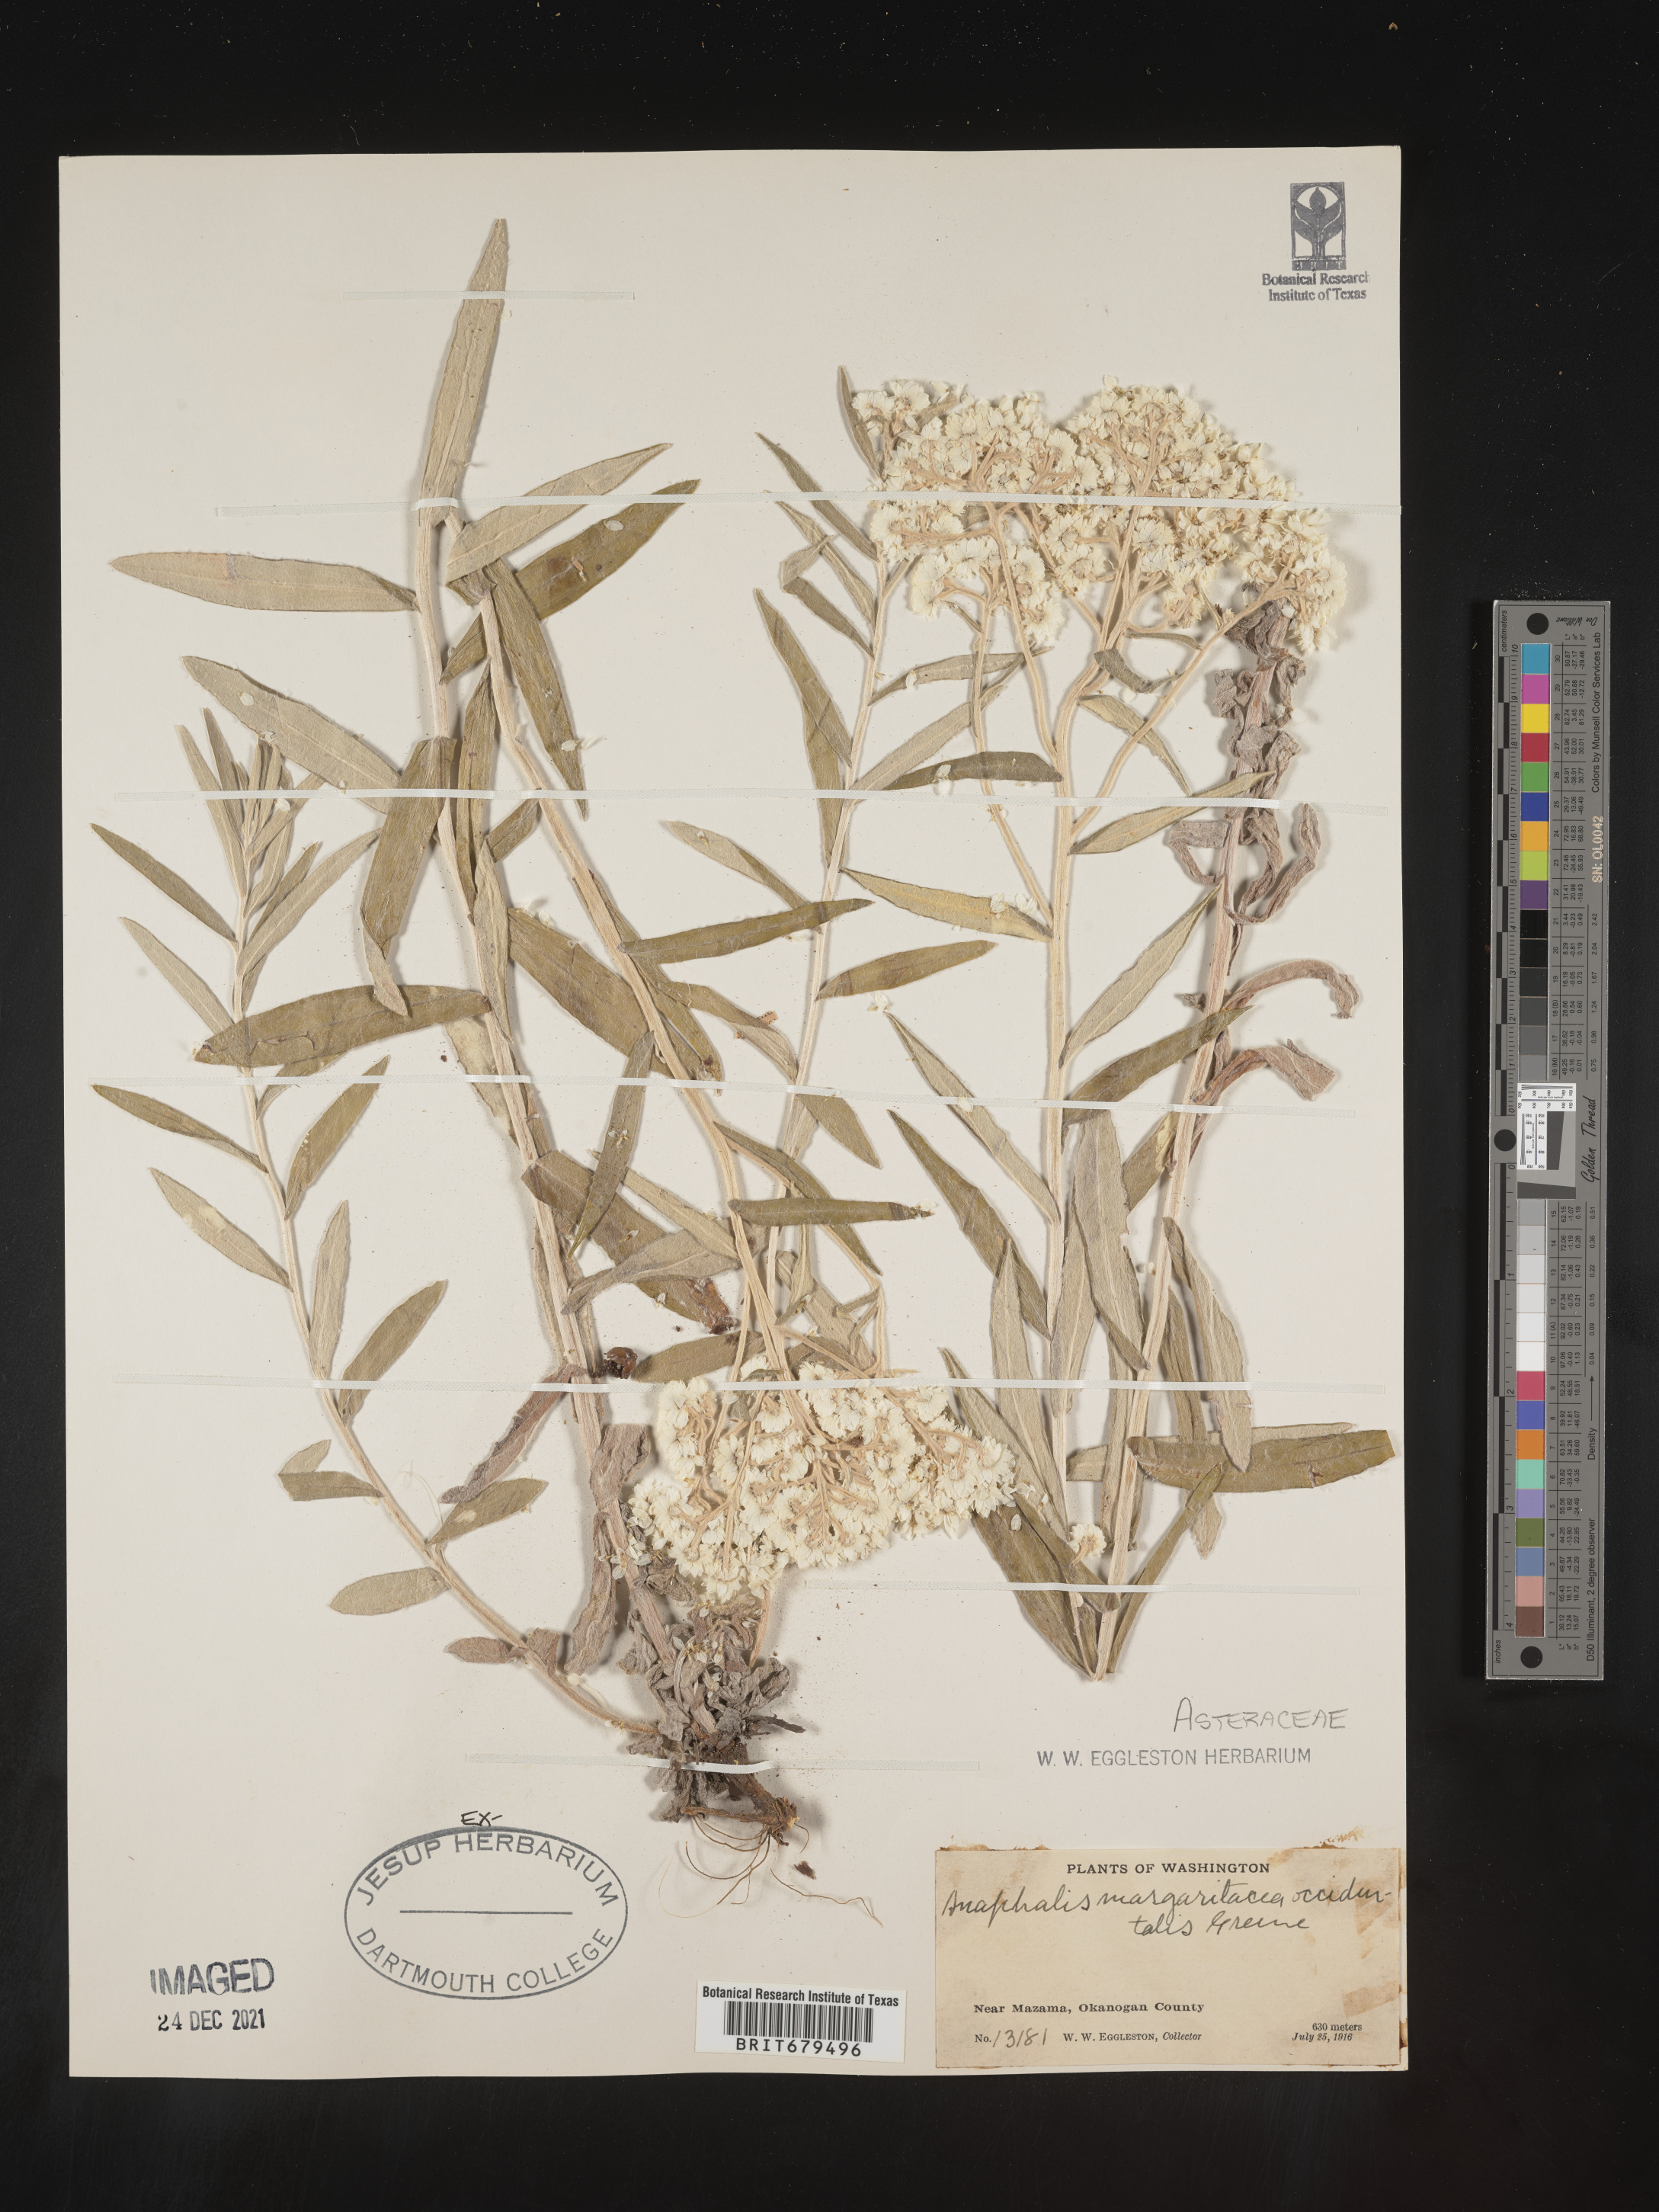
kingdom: Plantae
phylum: Tracheophyta
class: Magnoliopsida
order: Asterales
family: Asteraceae
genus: Anaphalis
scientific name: Anaphalis margaritacea
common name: Pearly everlasting
